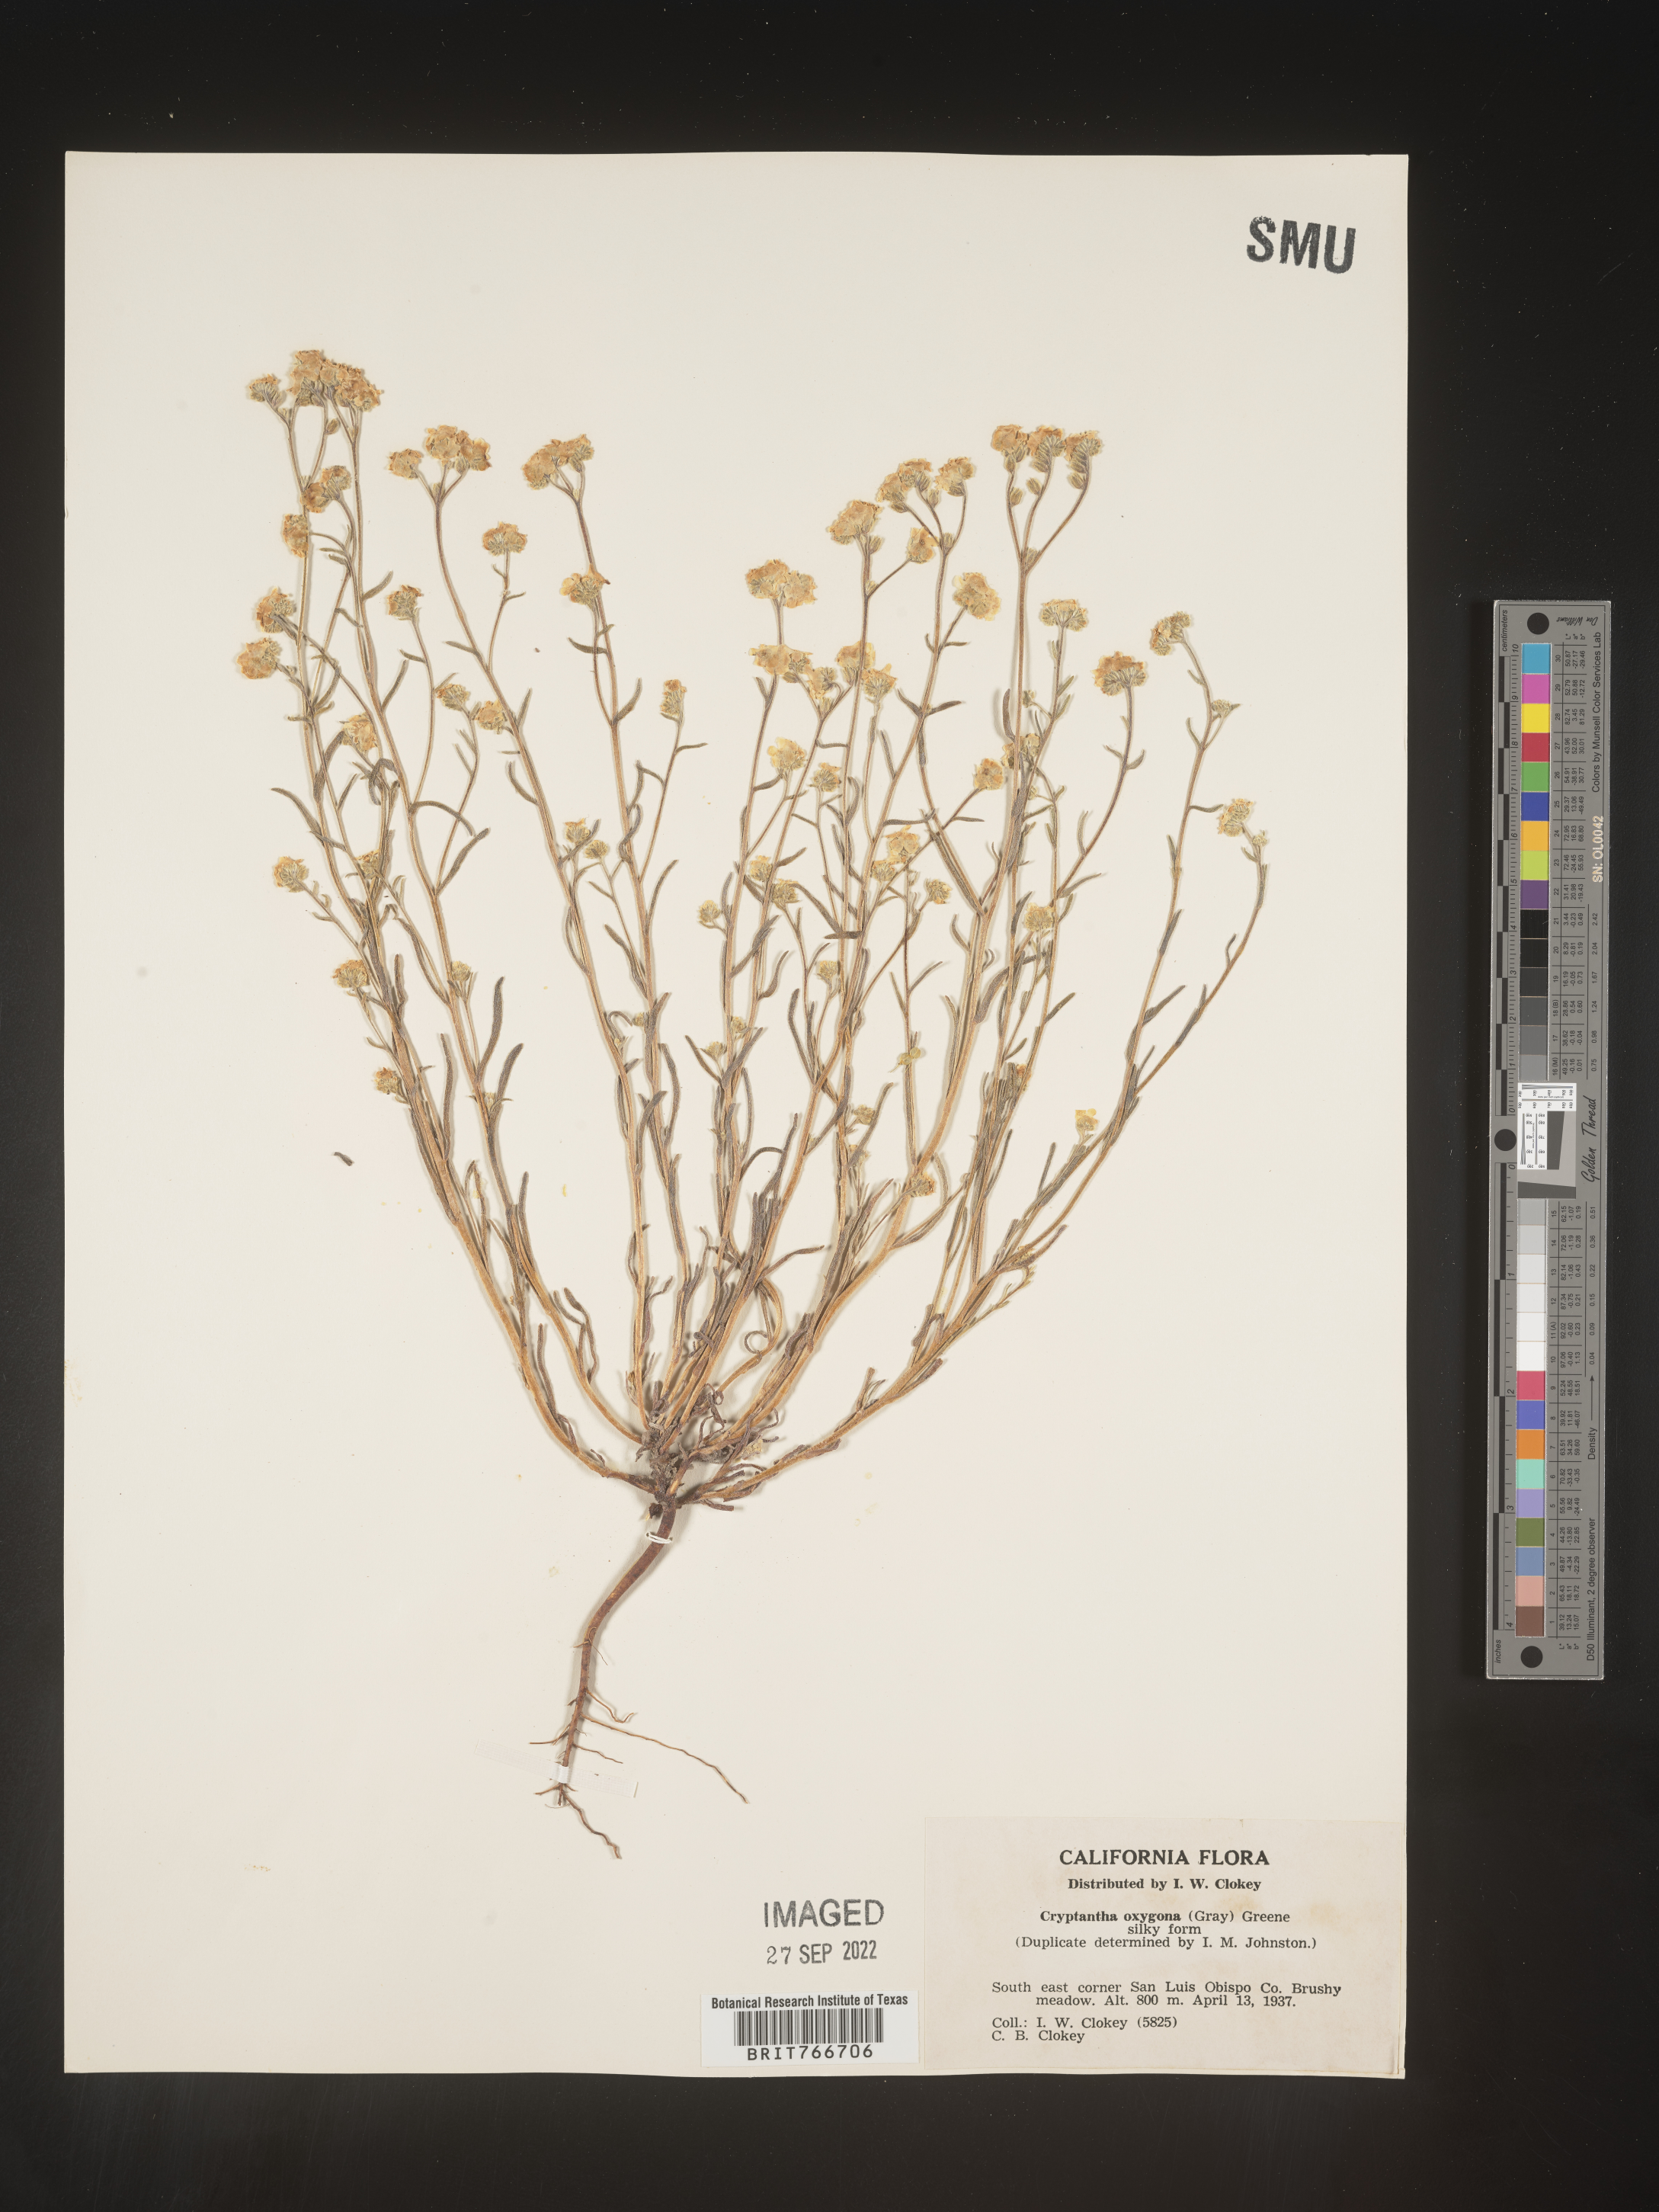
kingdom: Plantae
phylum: Tracheophyta
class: Magnoliopsida
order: Boraginales
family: Boraginaceae
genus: Cryptantha
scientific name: Cryptantha
